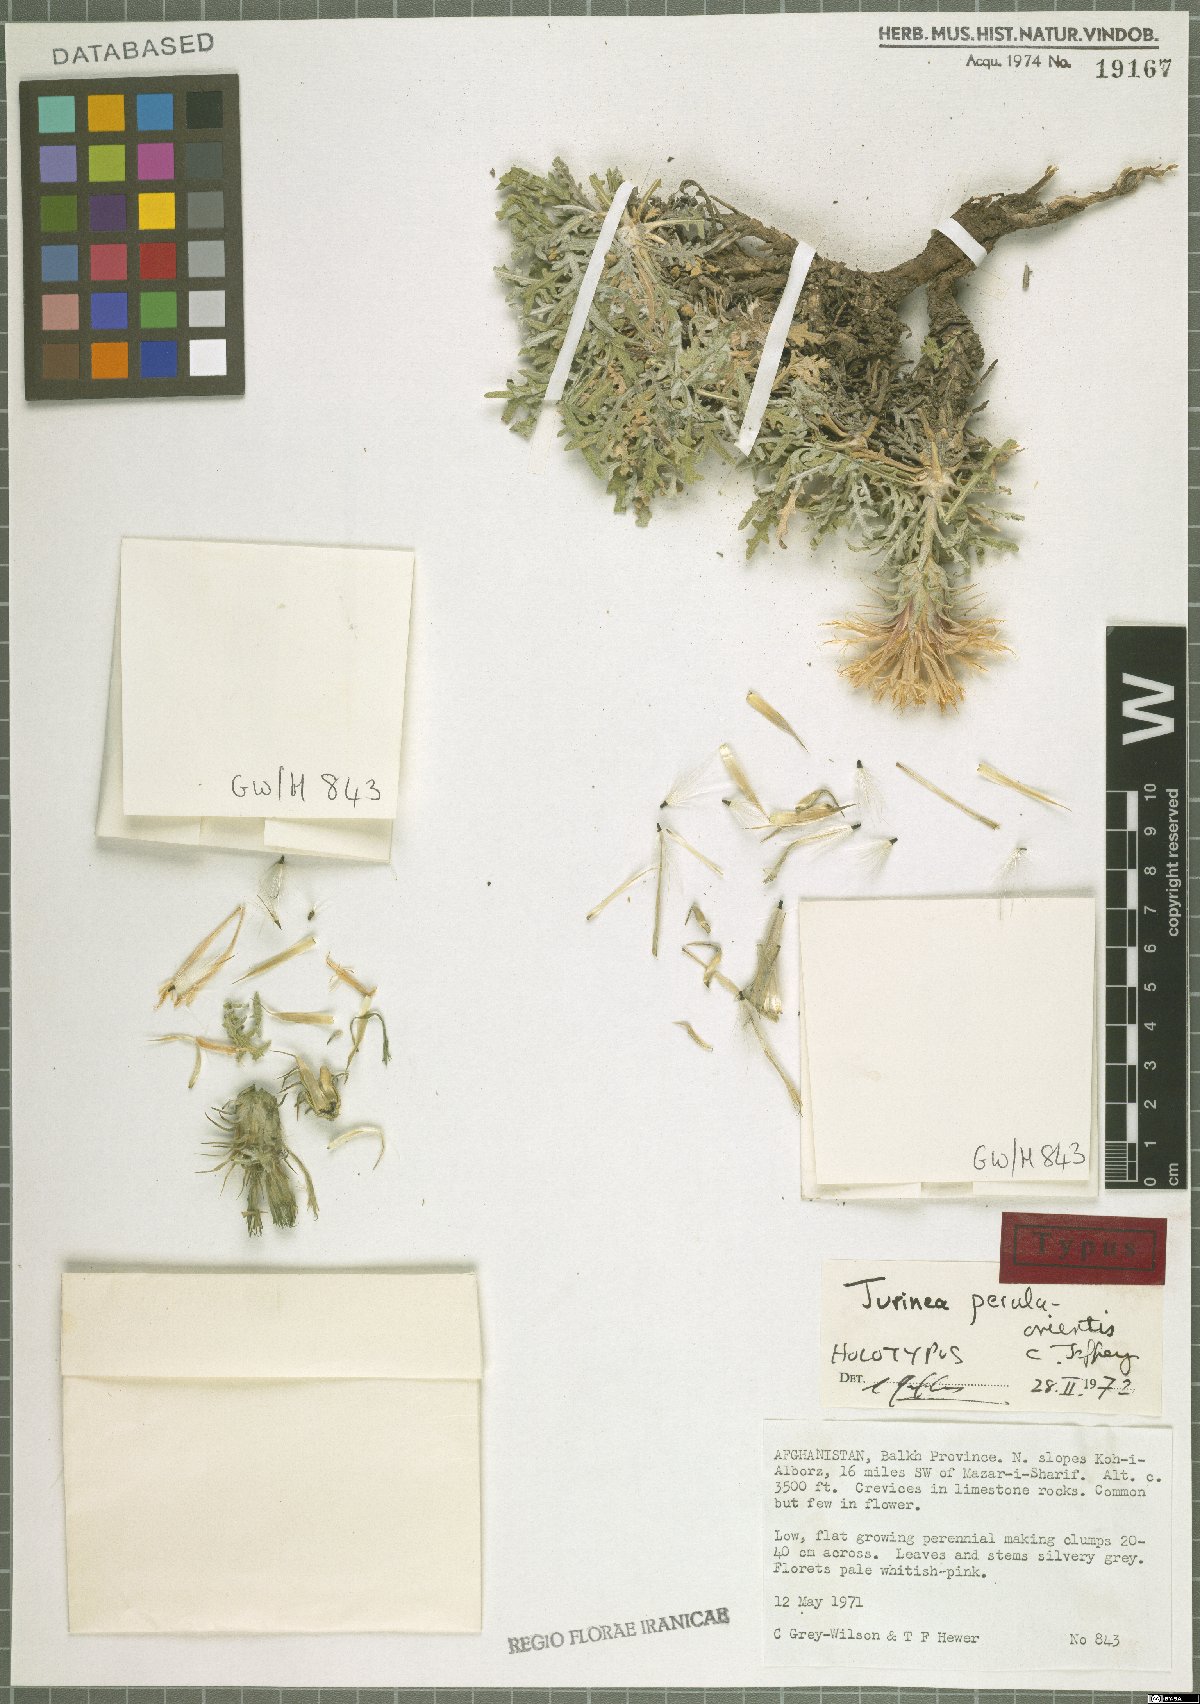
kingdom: Plantae
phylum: Tracheophyta
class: Magnoliopsida
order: Asterales
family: Asteraceae
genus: Jurinea
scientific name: Jurinea perula-orientis
